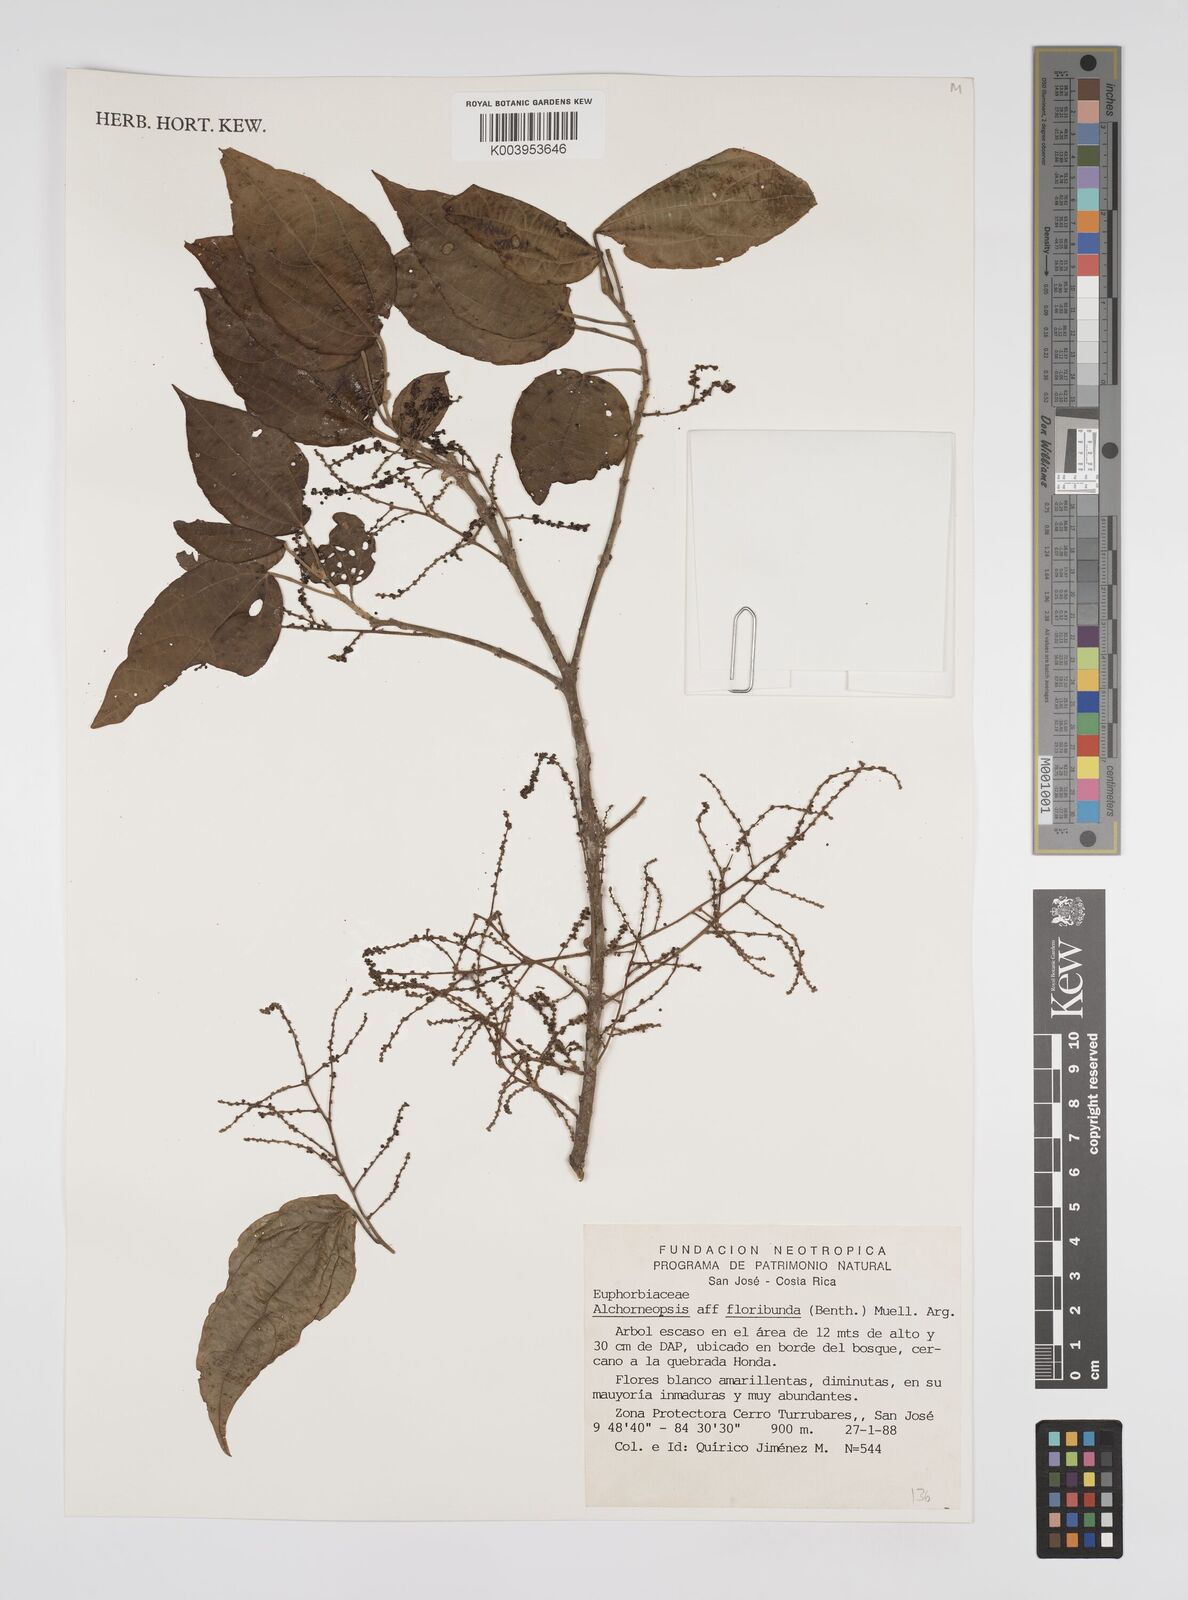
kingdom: Plantae
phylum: Tracheophyta
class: Magnoliopsida
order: Malpighiales
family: Euphorbiaceae
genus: Alchorneopsis
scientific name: Alchorneopsis floribunda
